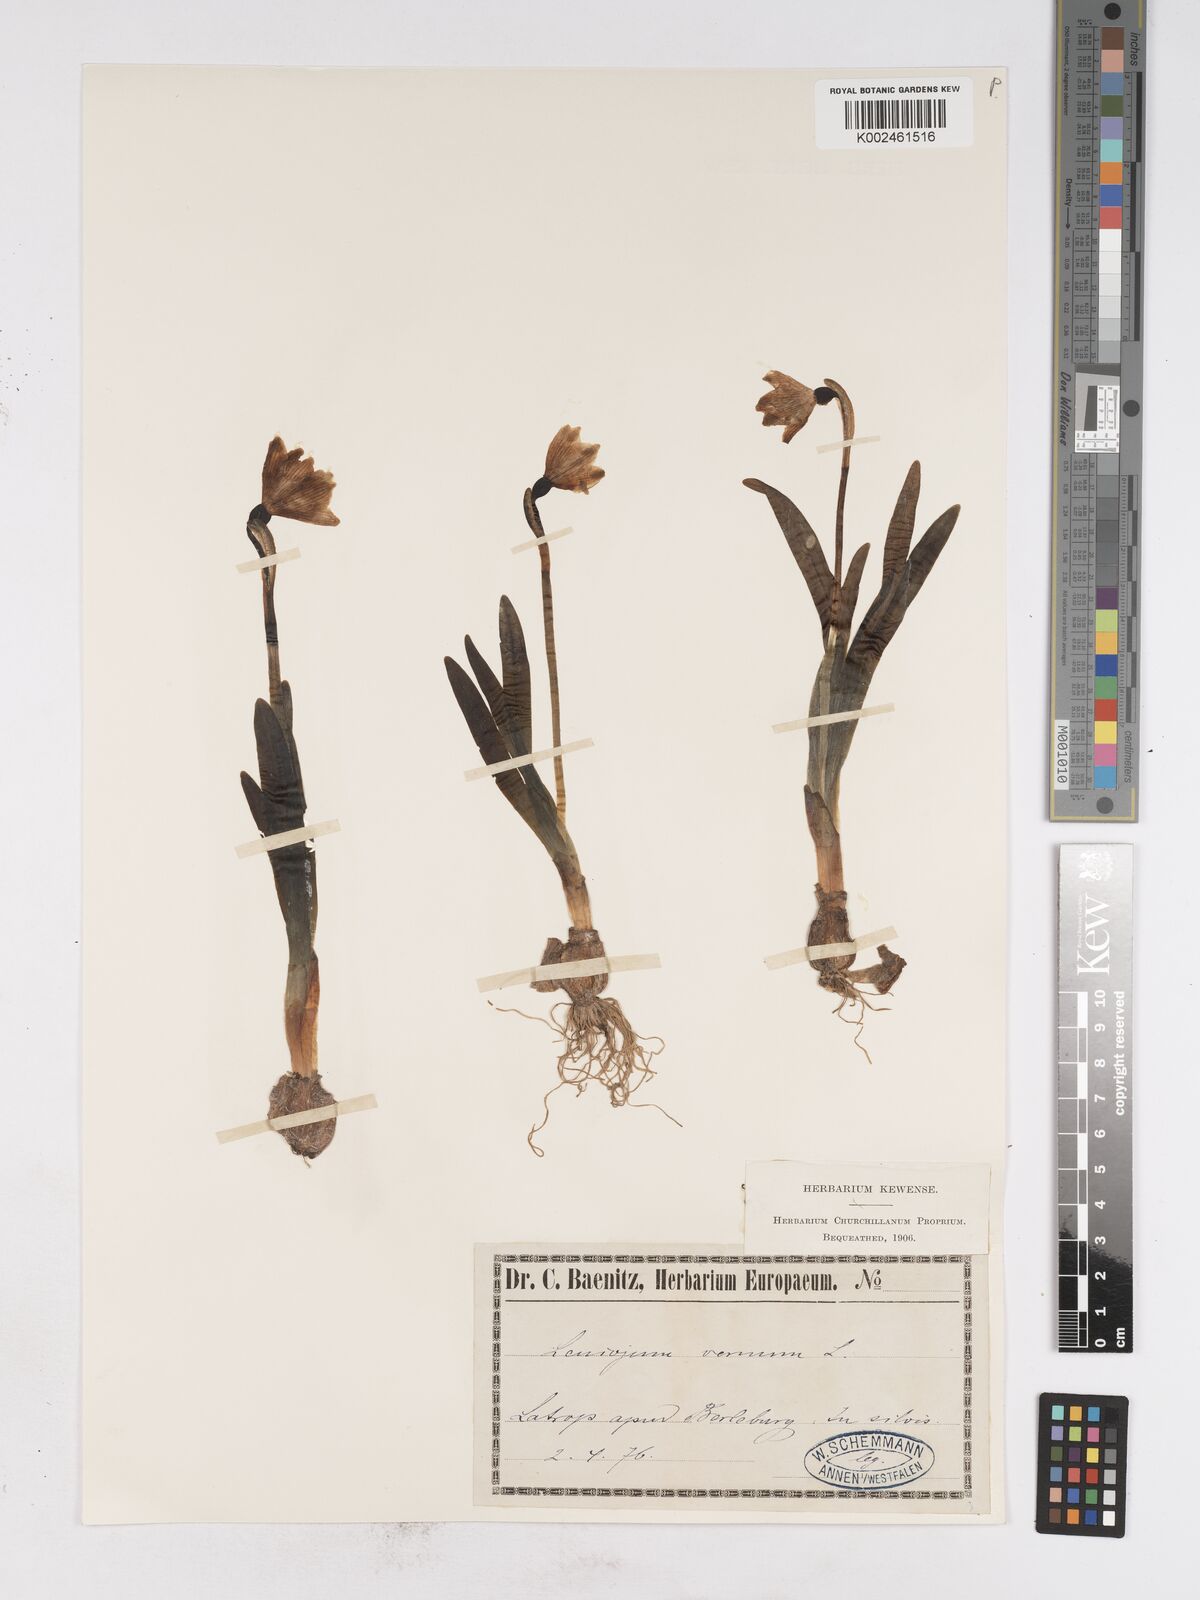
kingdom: Plantae
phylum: Tracheophyta
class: Liliopsida
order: Asparagales
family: Amaryllidaceae
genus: Leucojum
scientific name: Leucojum vernum
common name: Spring snowflake
